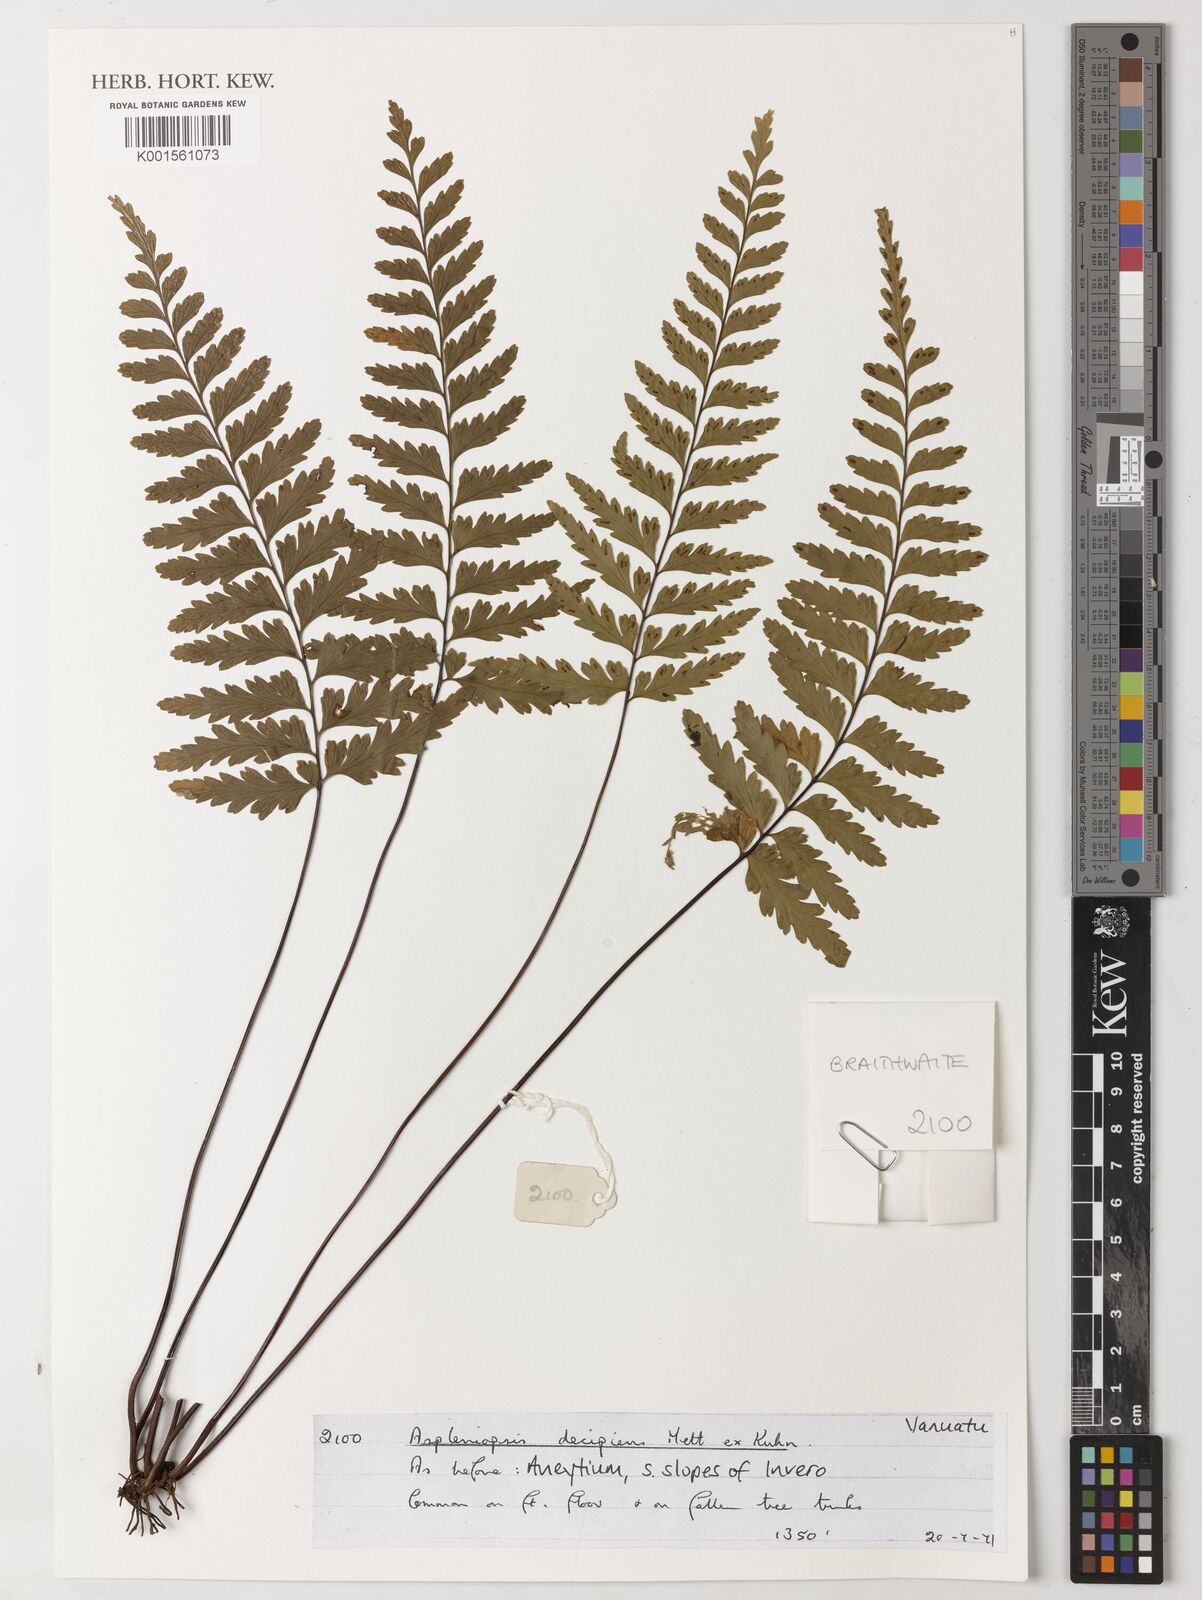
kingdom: Plantae
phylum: Tracheophyta
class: Polypodiopsida
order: Polypodiales
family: Pteridaceae
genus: Austrogramme
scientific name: Austrogramme decipiens
